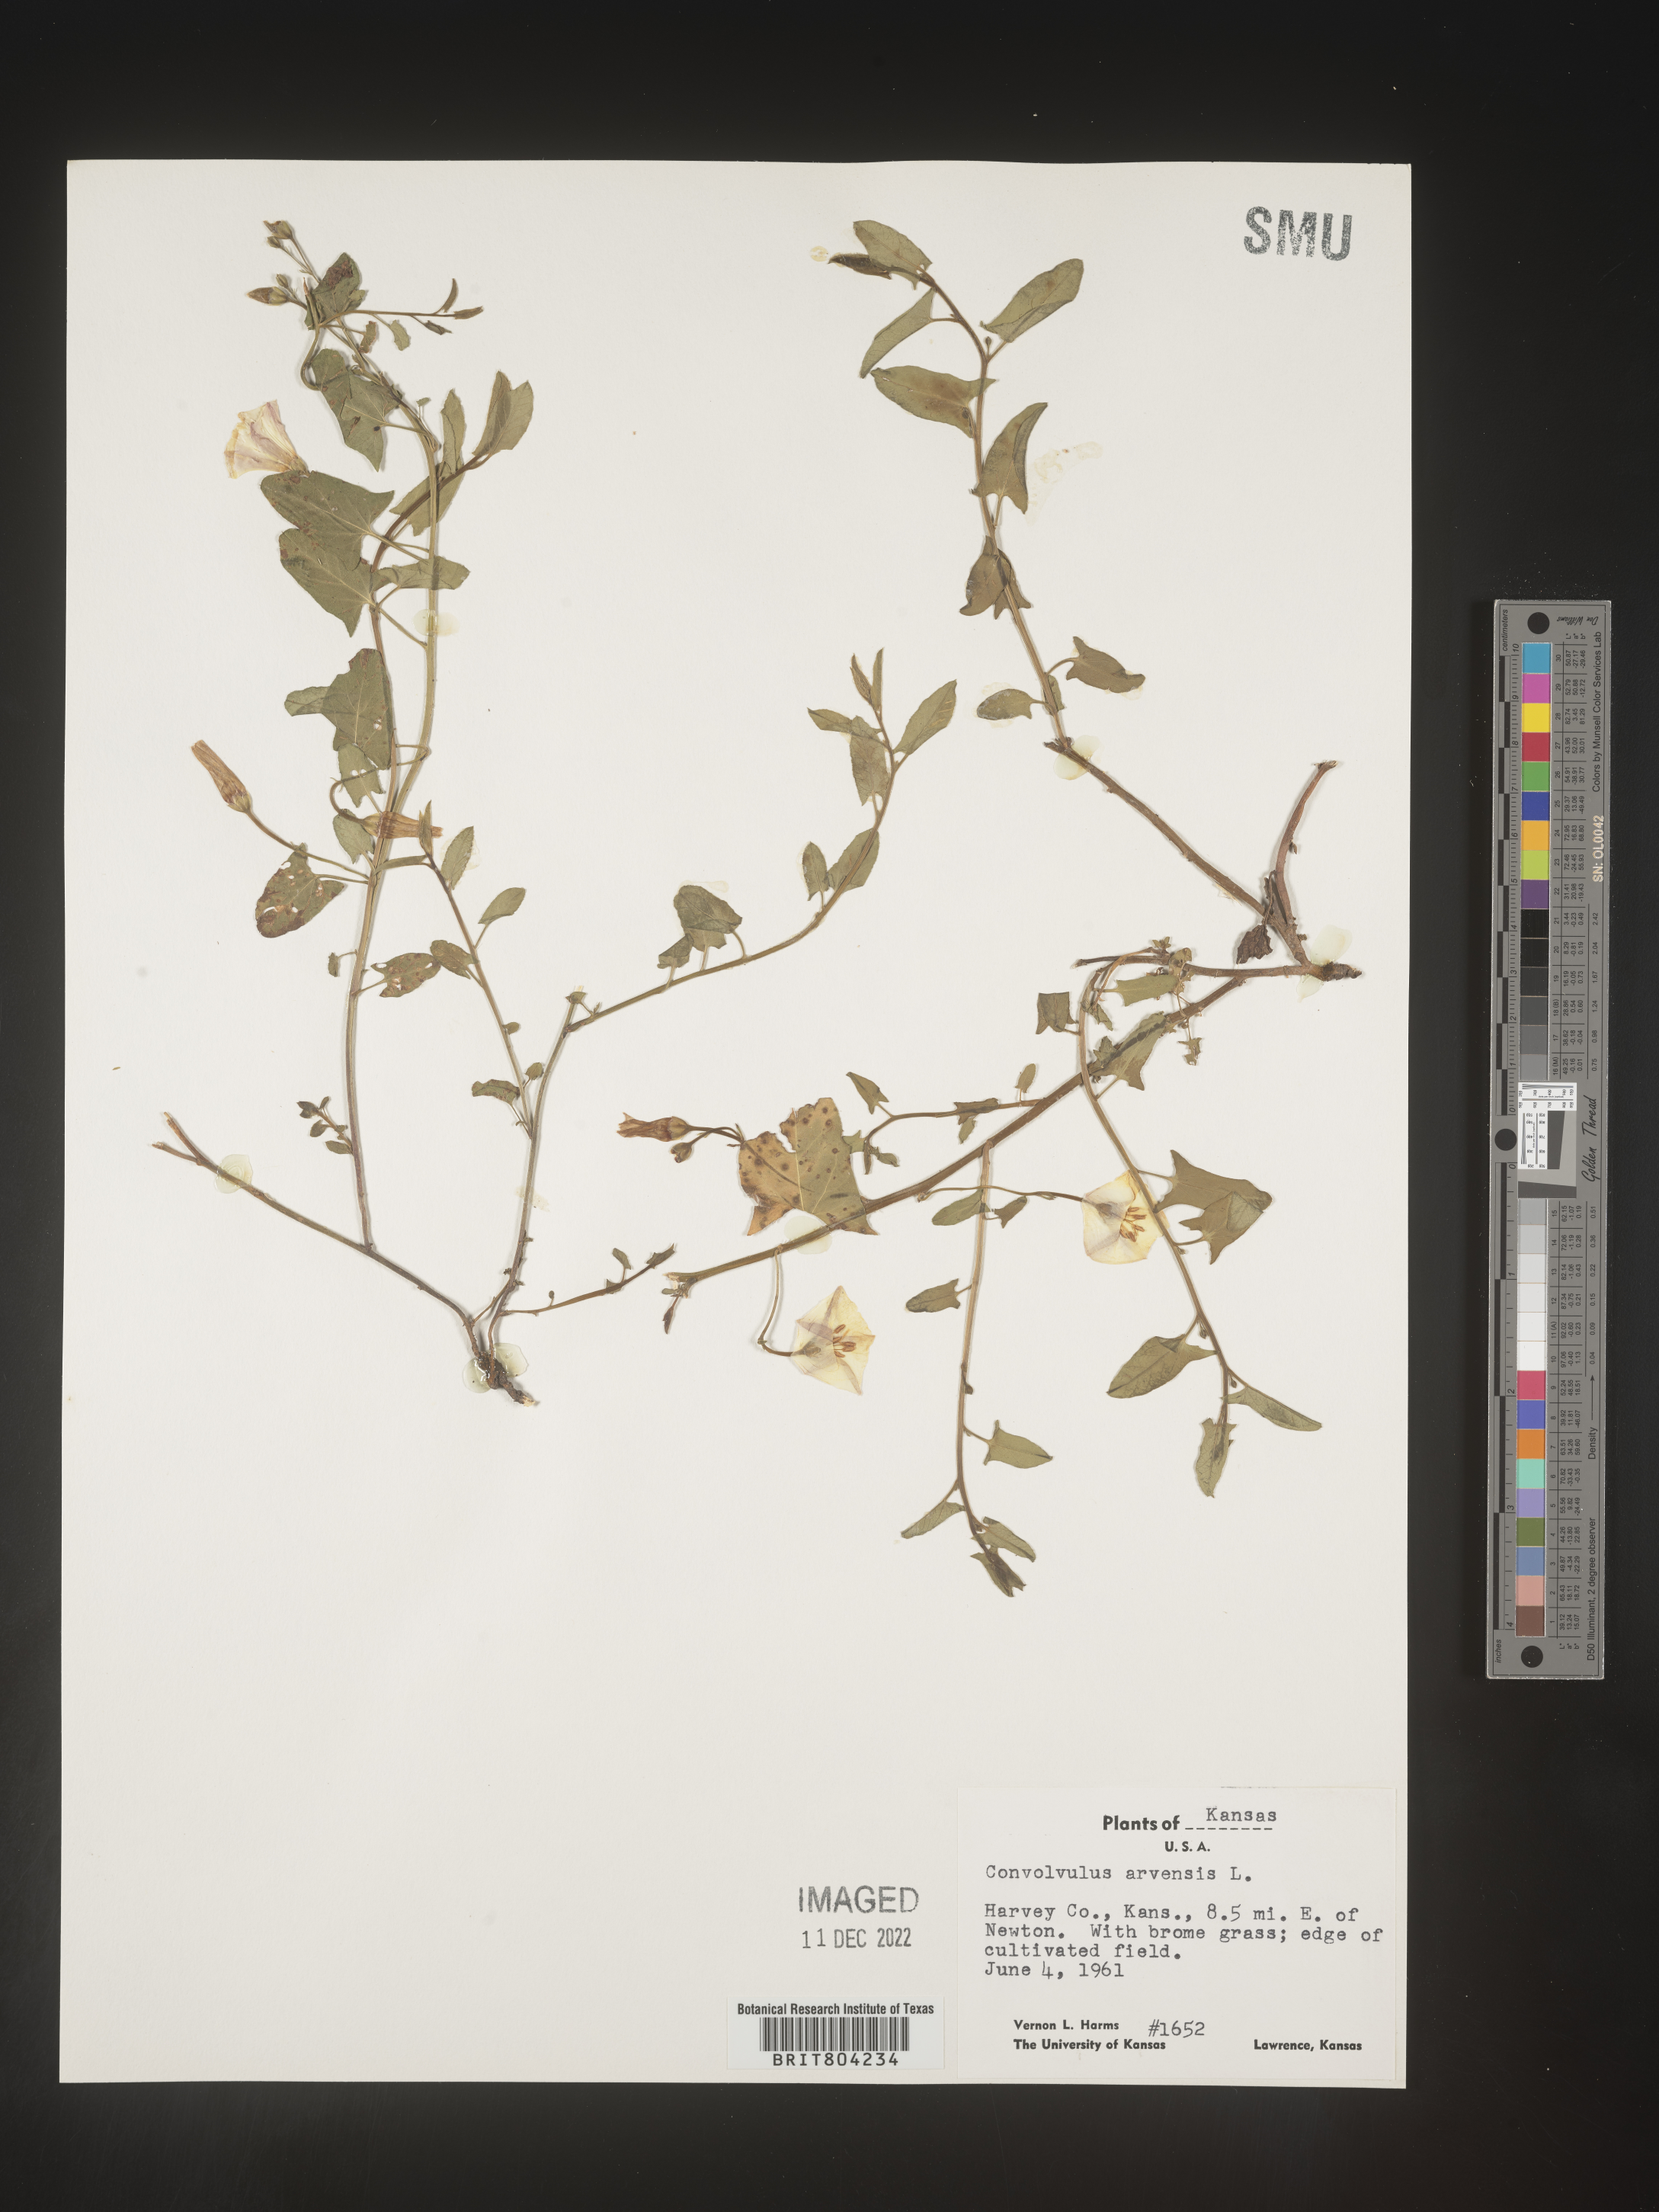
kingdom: Plantae
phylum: Tracheophyta
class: Magnoliopsida
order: Solanales
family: Convolvulaceae
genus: Convolvulus
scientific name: Convolvulus arvensis
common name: Field bindweed
